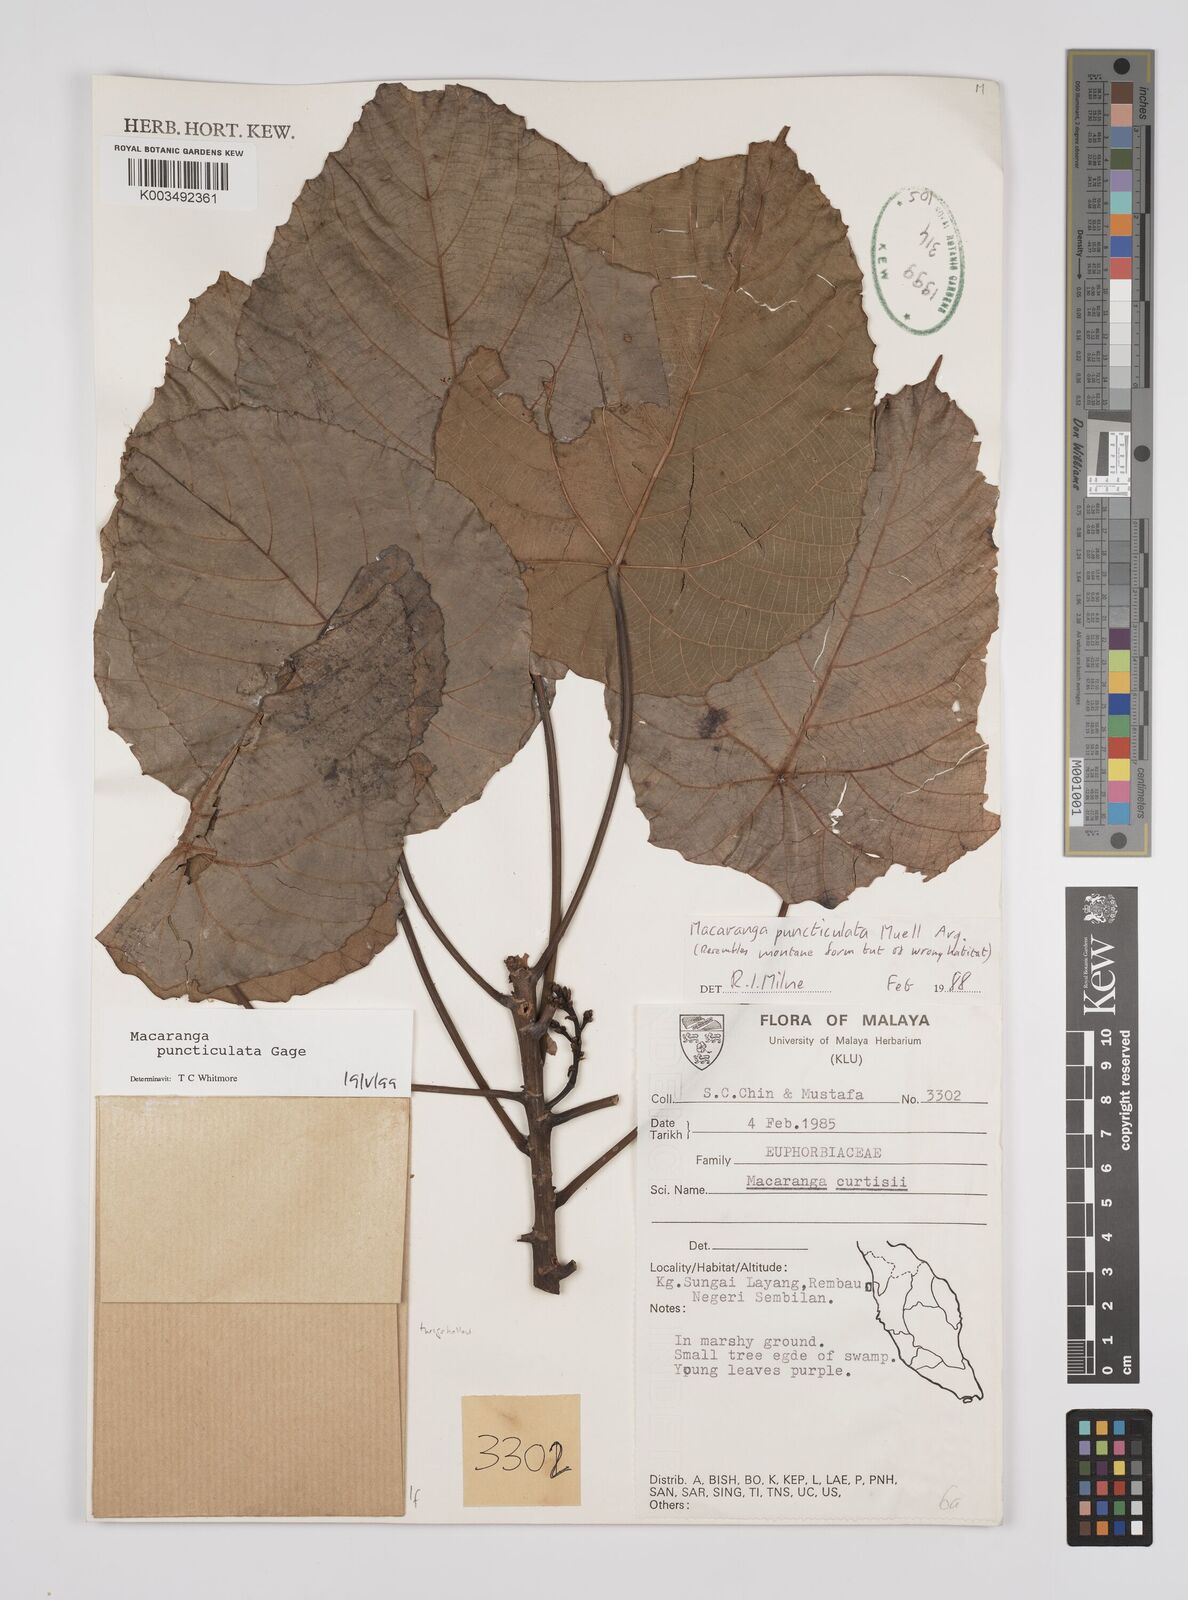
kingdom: Plantae
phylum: Tracheophyta
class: Magnoliopsida
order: Malpighiales
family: Euphorbiaceae
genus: Macaranga
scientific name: Macaranga puncticulata
